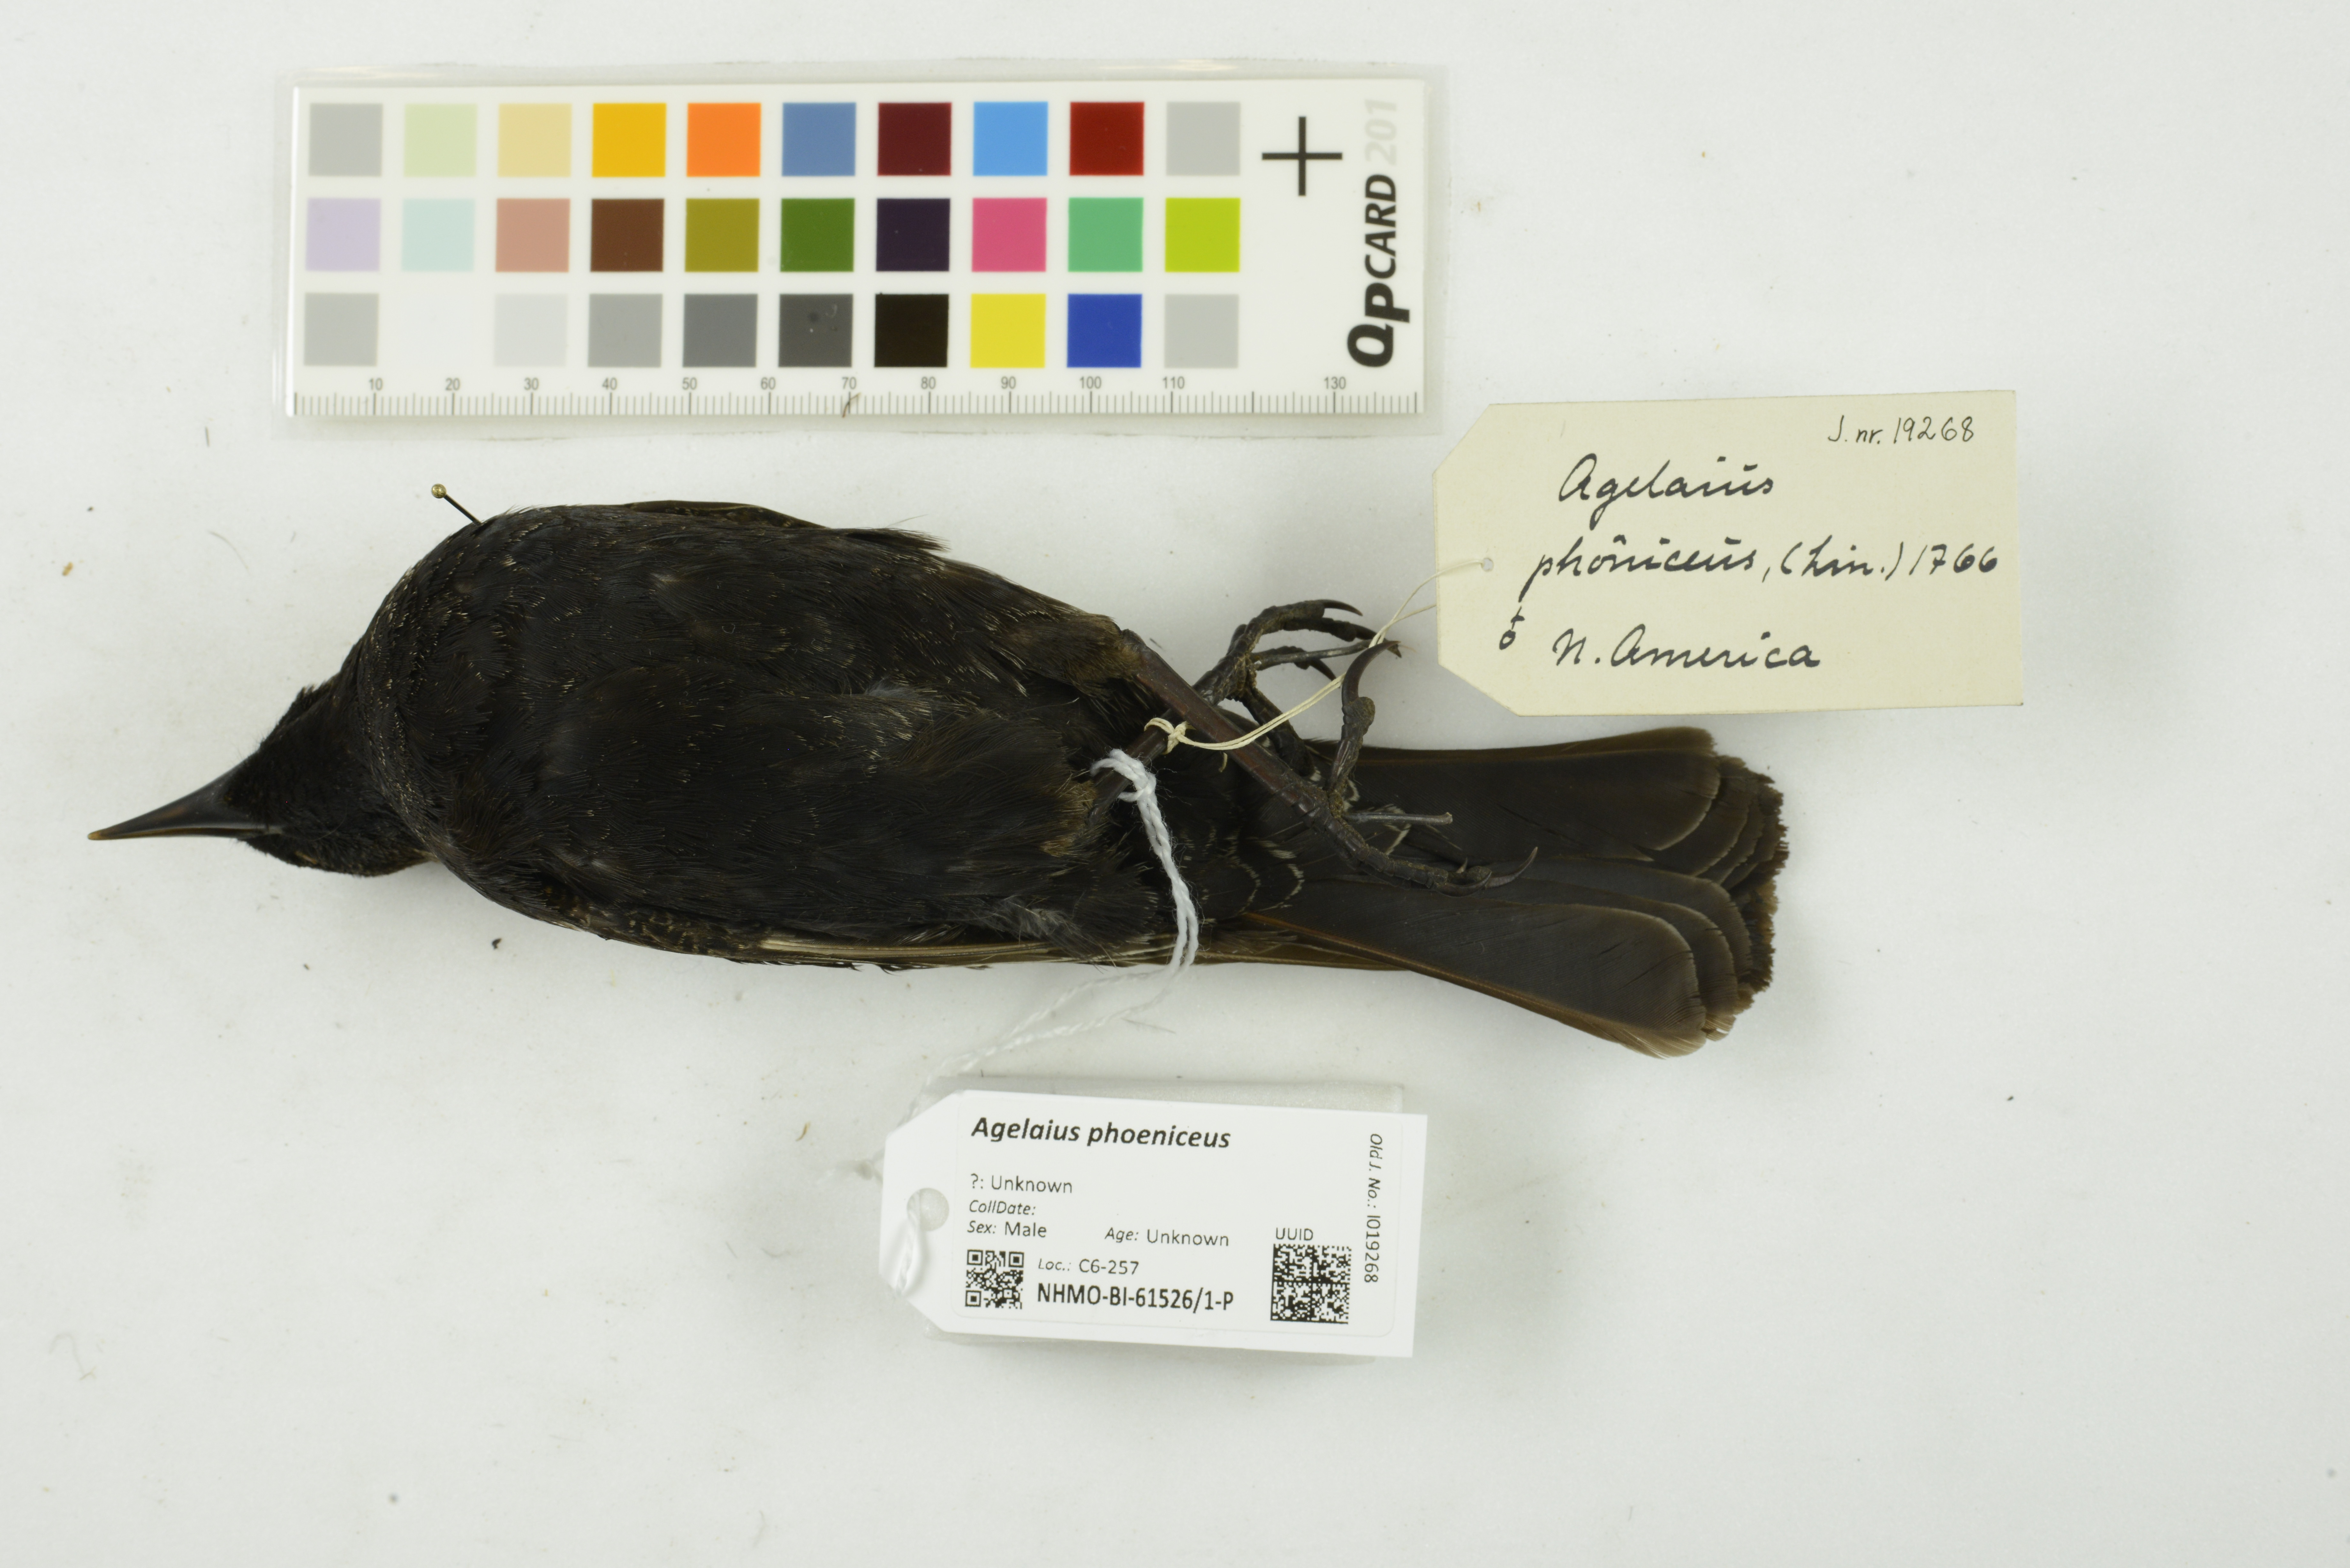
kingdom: Animalia
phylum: Chordata
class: Aves
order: Passeriformes
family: Icteridae
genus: Agelaius
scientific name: Agelaius phoeniceus
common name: Red-winged blackbird
